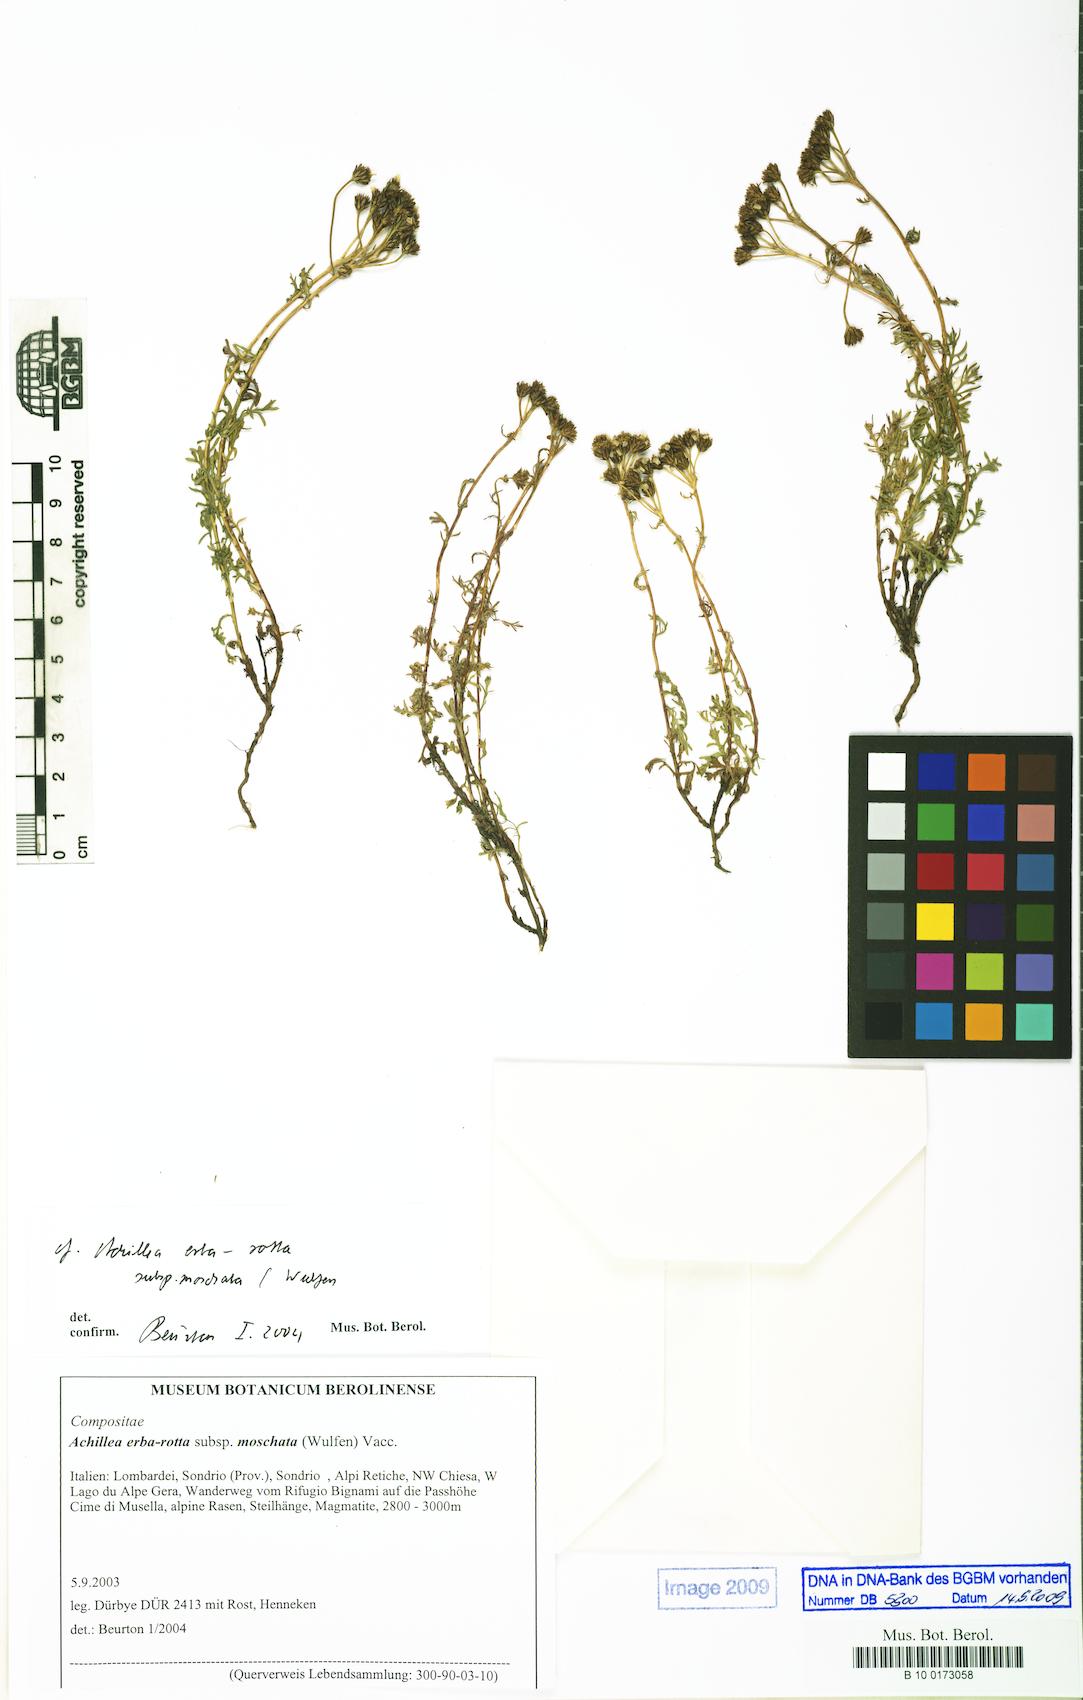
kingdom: Plantae
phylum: Tracheophyta
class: Magnoliopsida
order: Asterales
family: Asteraceae
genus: Achillea
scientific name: Achillea erba-rotta
